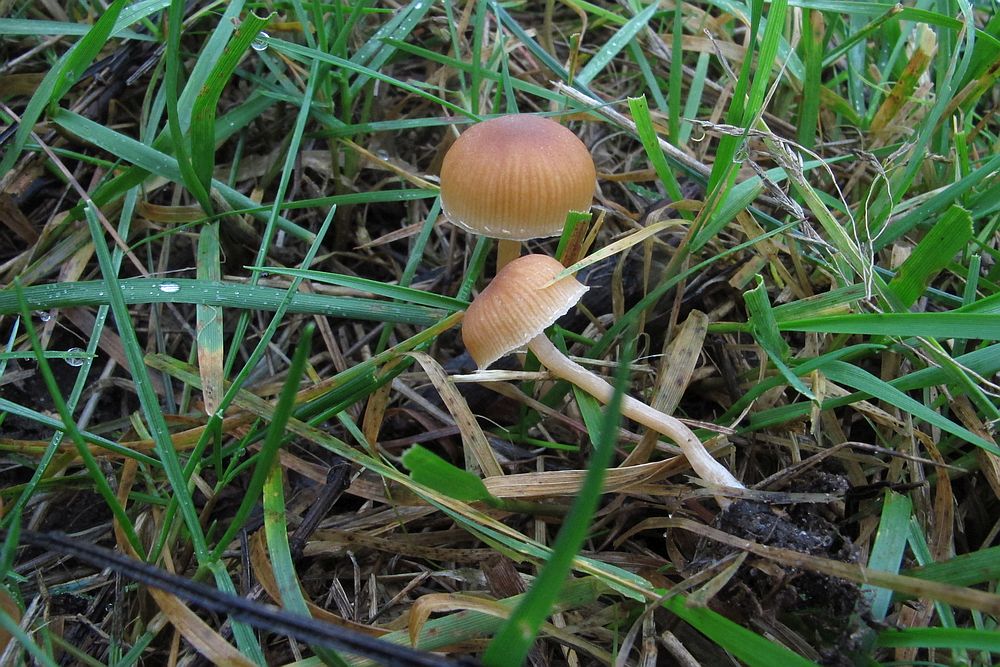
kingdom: Fungi
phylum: Basidiomycota
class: Agaricomycetes
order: Agaricales
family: Tubariaceae
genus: Tubaria
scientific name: Tubaria furfuracea
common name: kliddet fnughat
